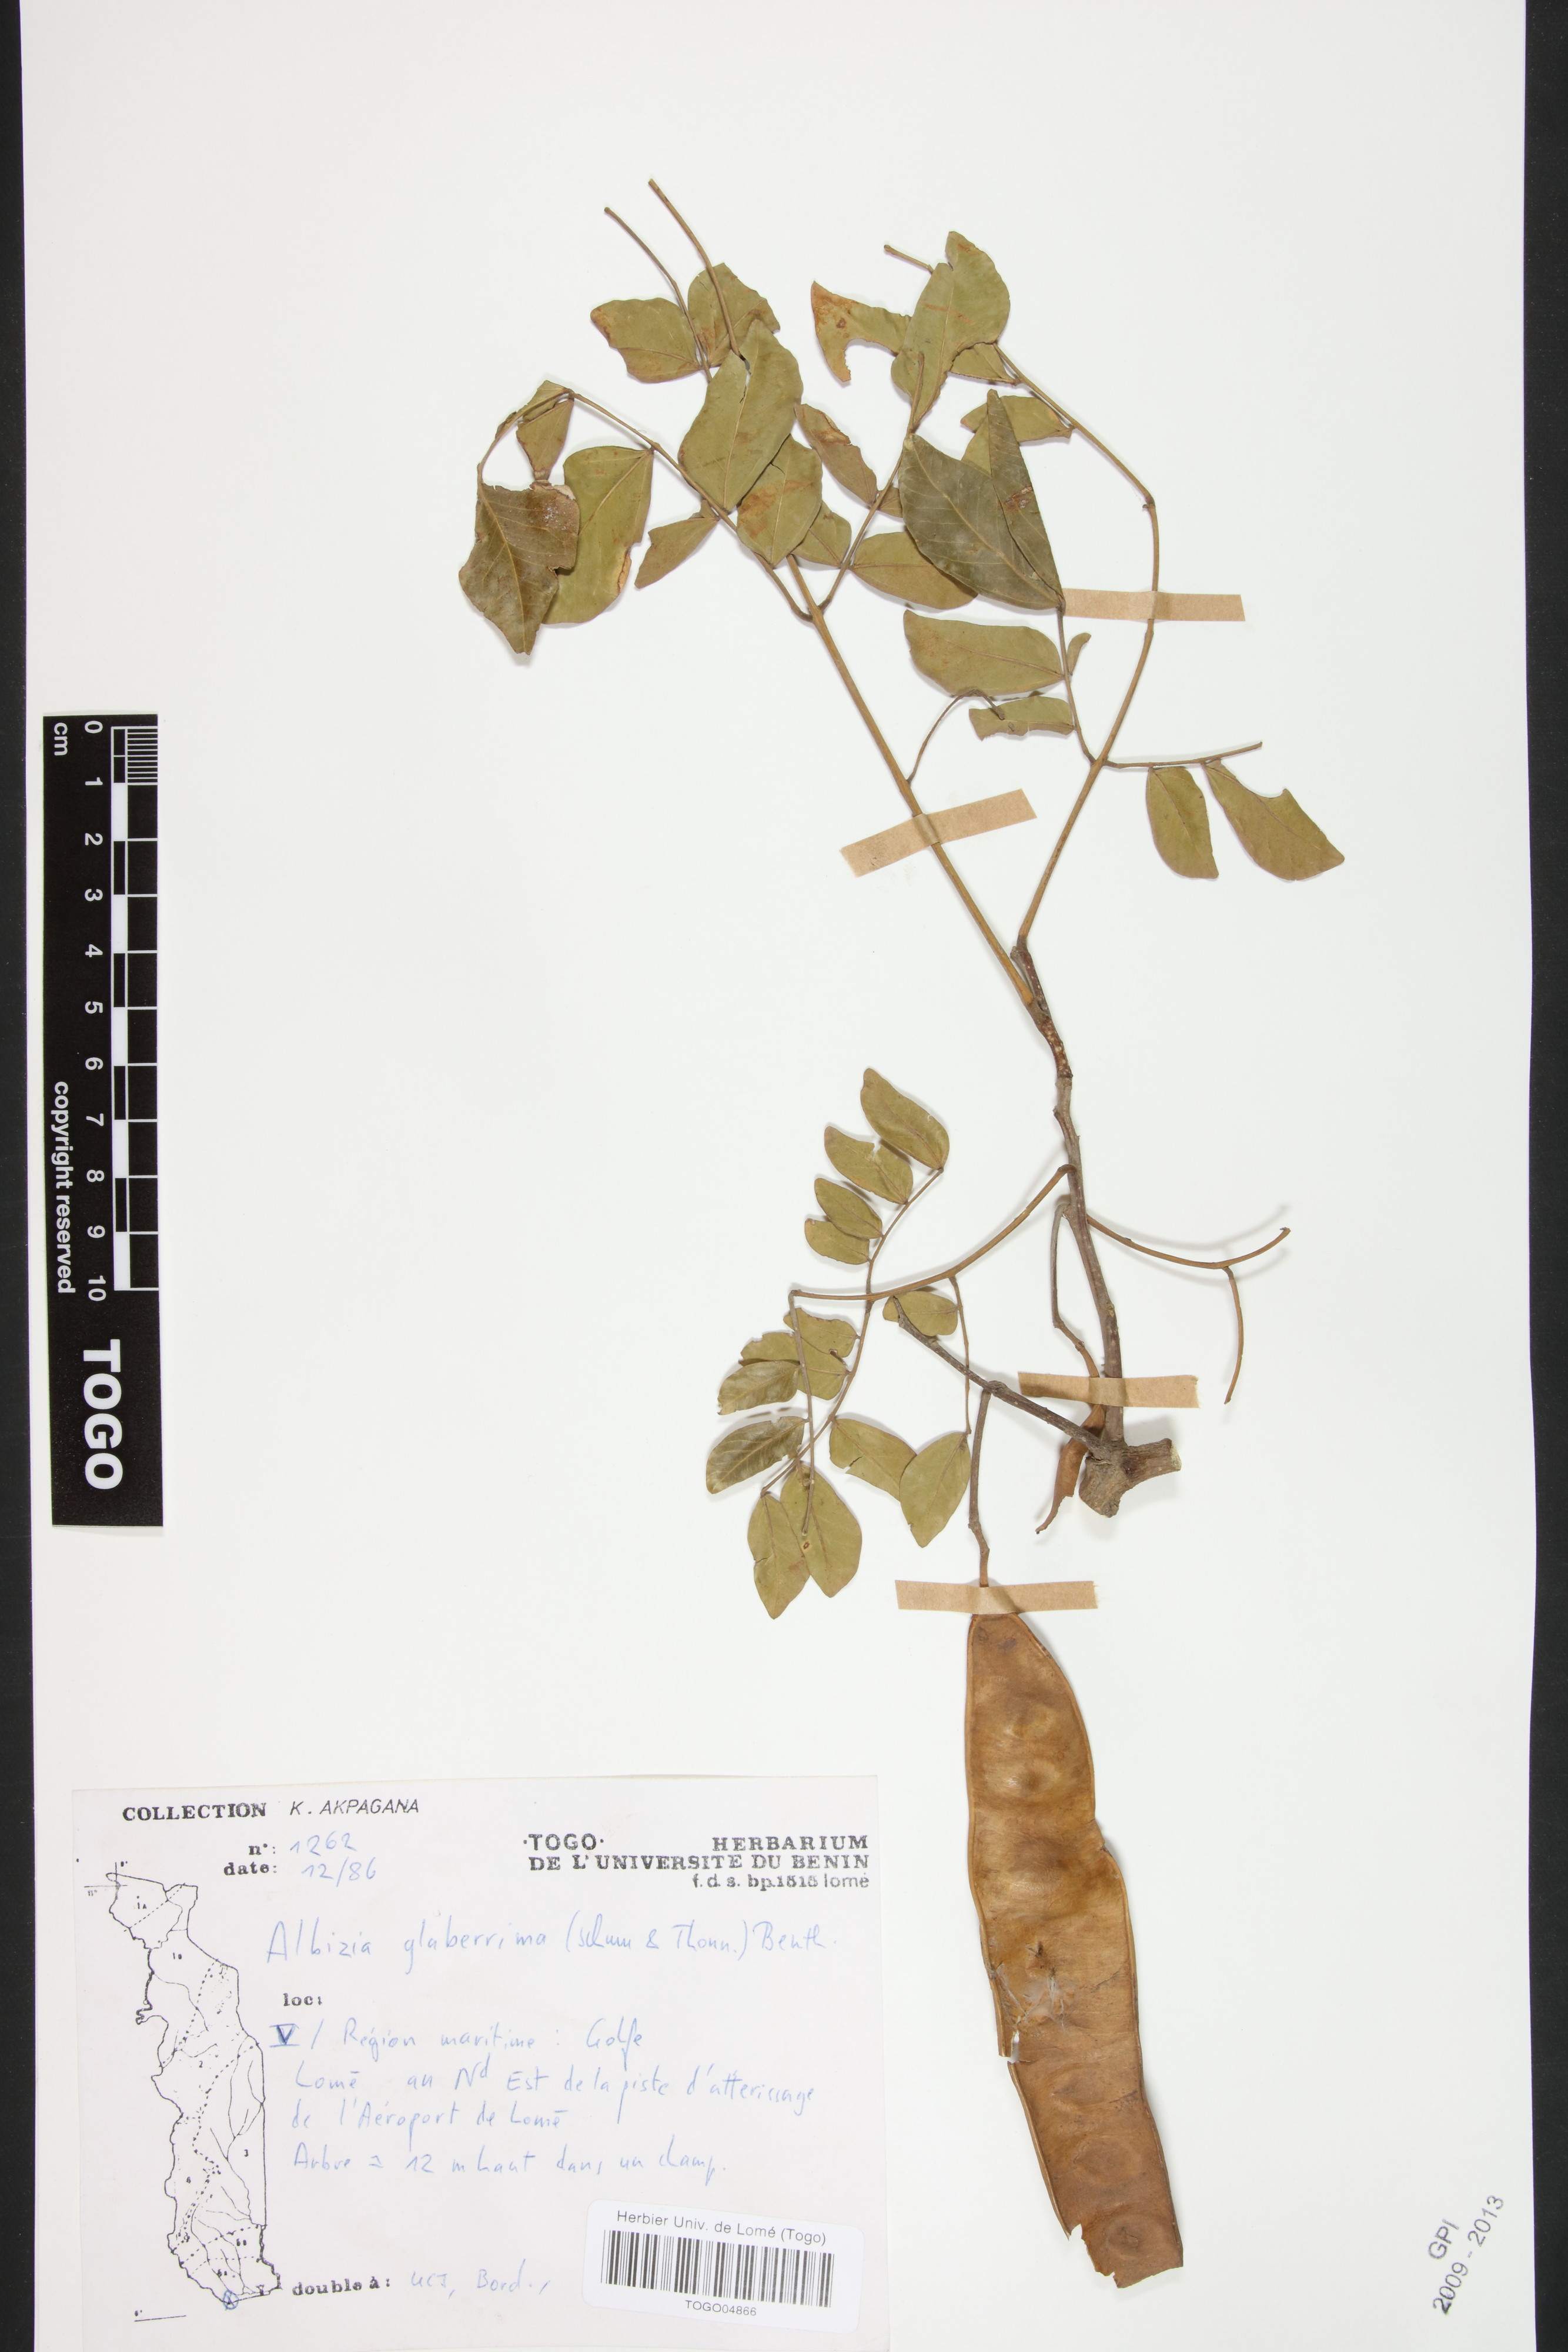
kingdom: Plantae
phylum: Tracheophyta
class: Magnoliopsida
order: Fabales
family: Fabaceae
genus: Albizia
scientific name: Albizia glaberrima
